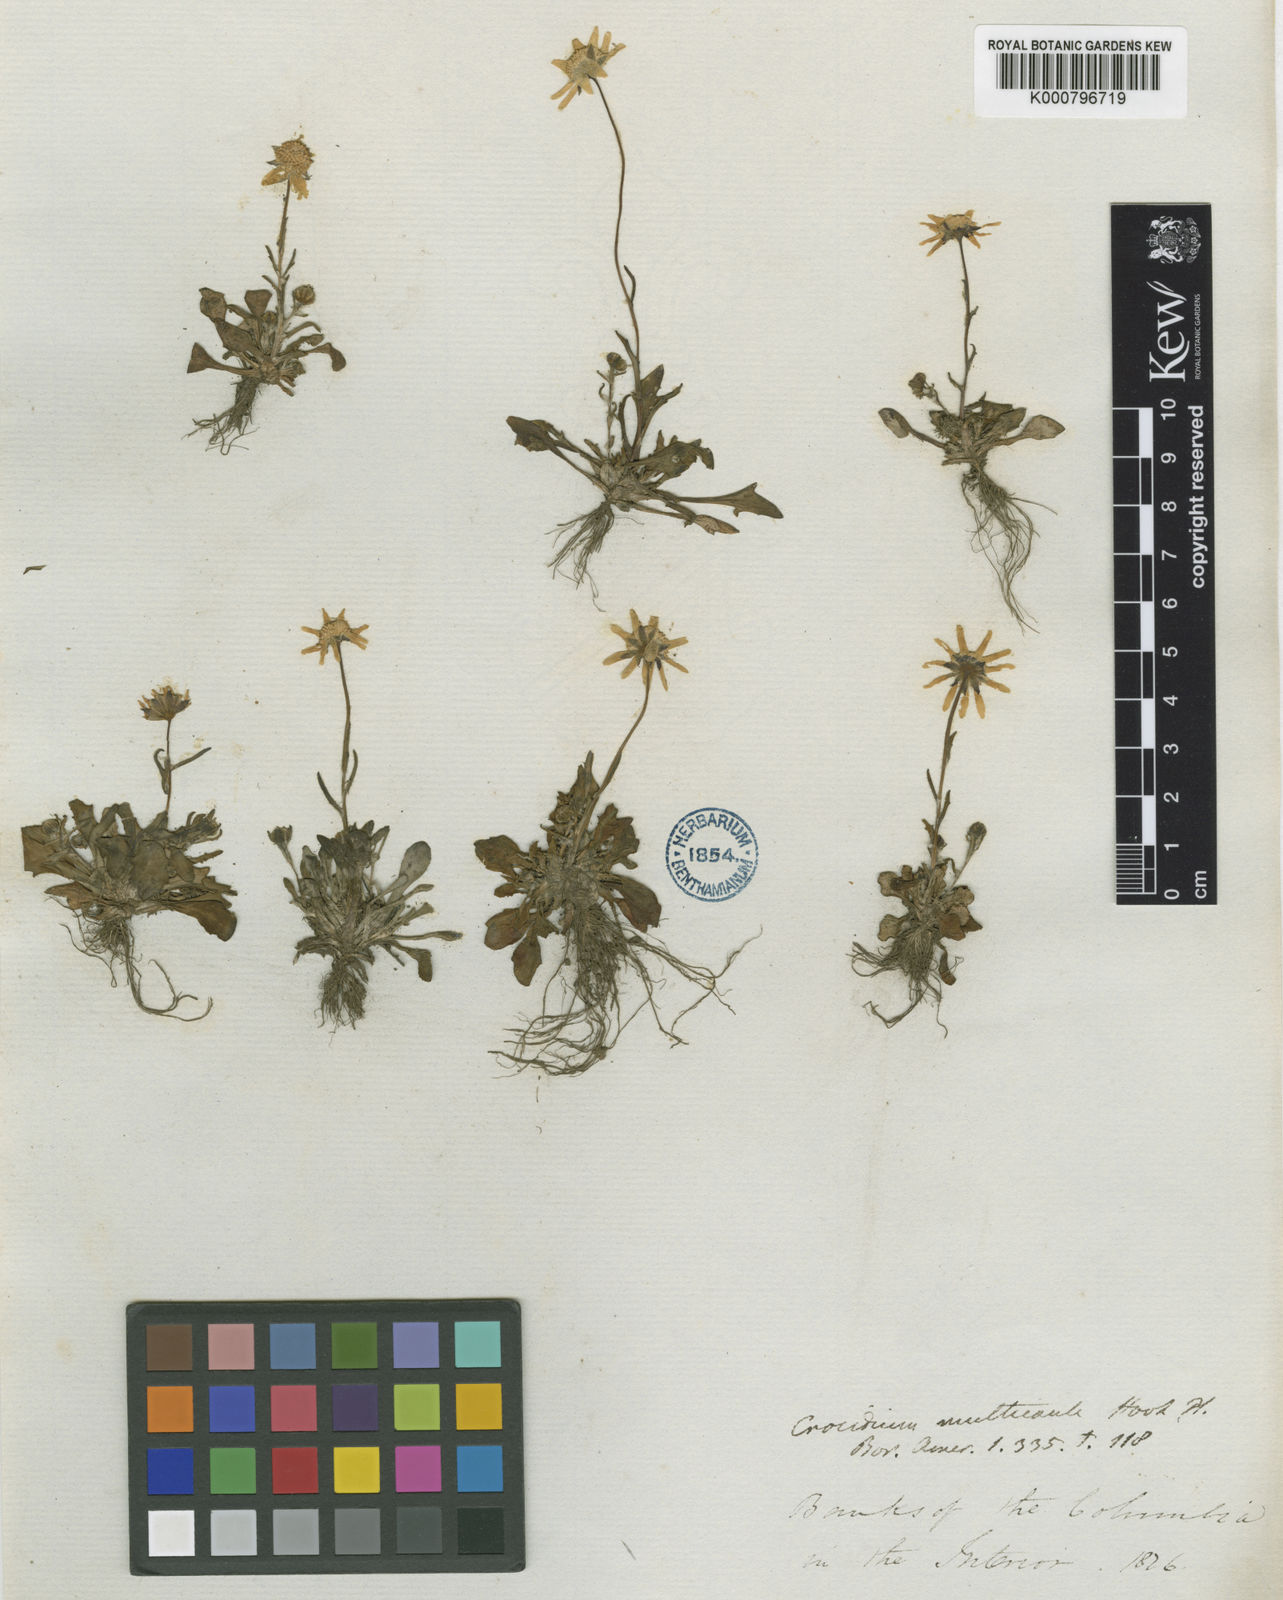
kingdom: Plantae
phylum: Tracheophyta
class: Magnoliopsida
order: Asterales
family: Asteraceae
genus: Crocidium
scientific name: Crocidium multicaule
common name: Common spring gold
